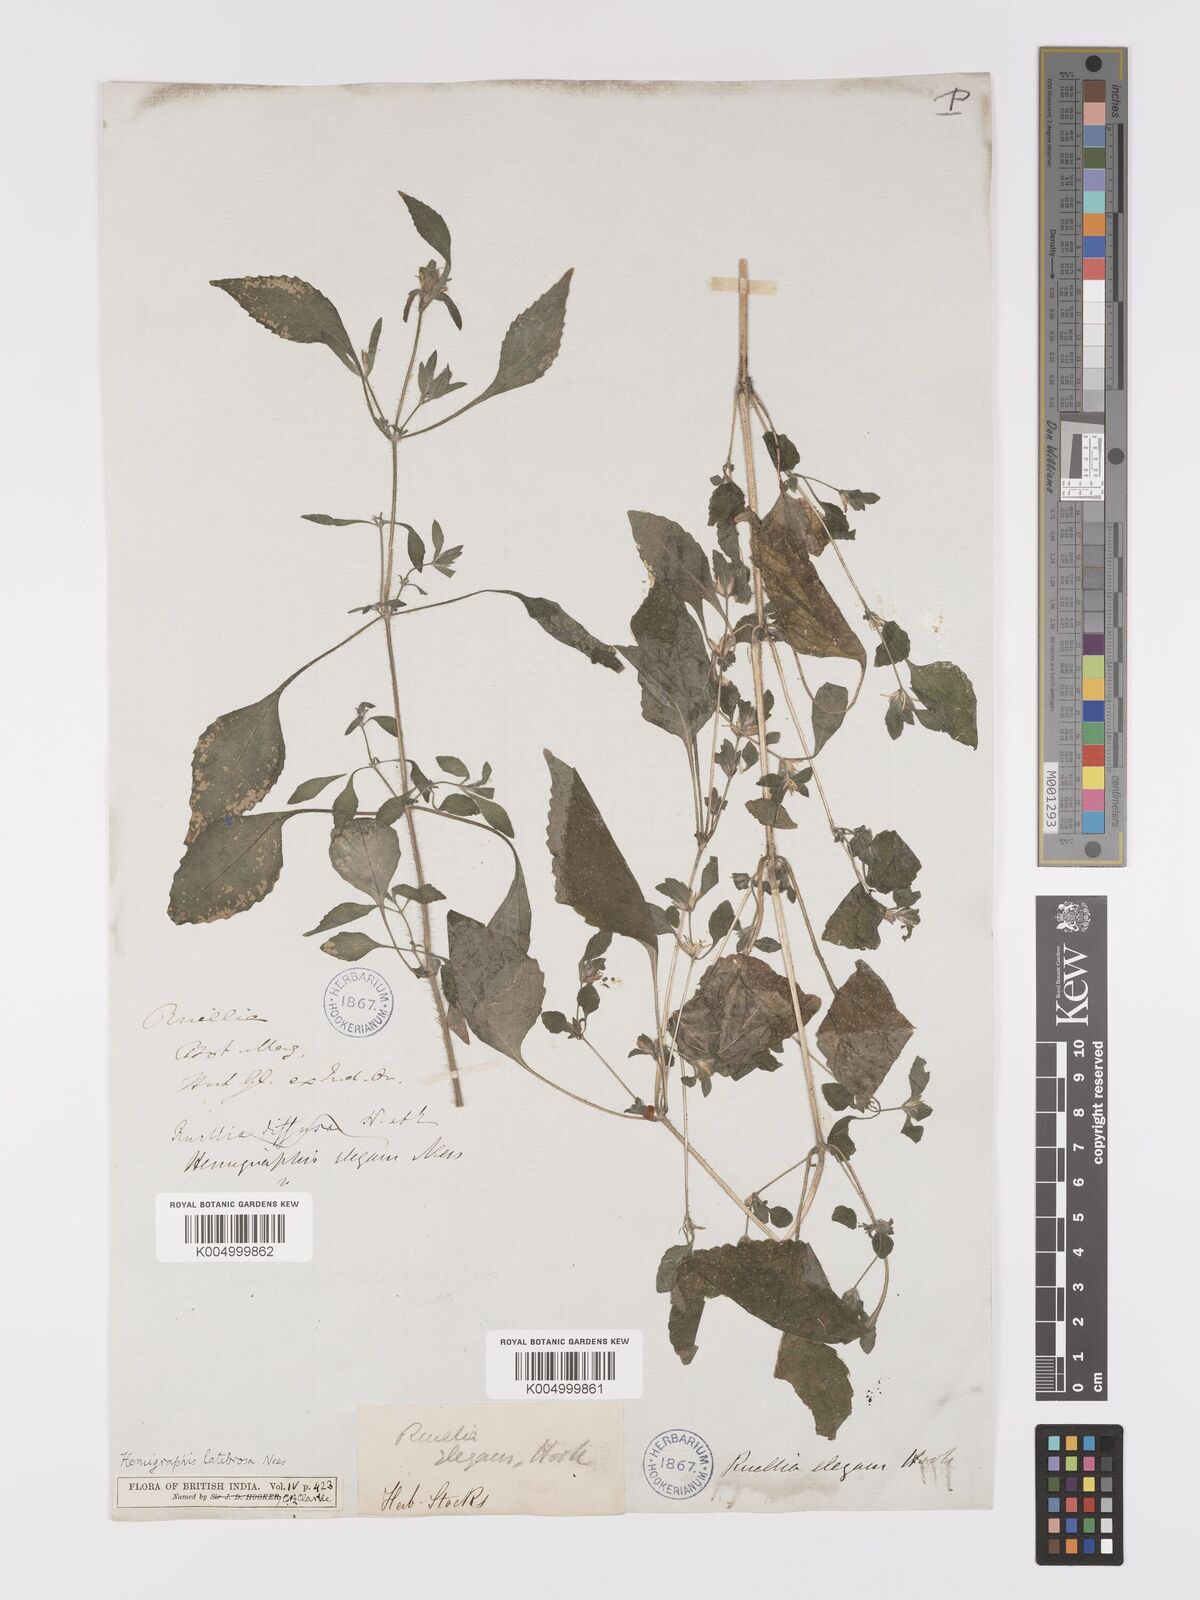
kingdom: Plantae
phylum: Tracheophyta
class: Magnoliopsida
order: Lamiales
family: Acanthaceae
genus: Strobilanthes
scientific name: Strobilanthes pavala
